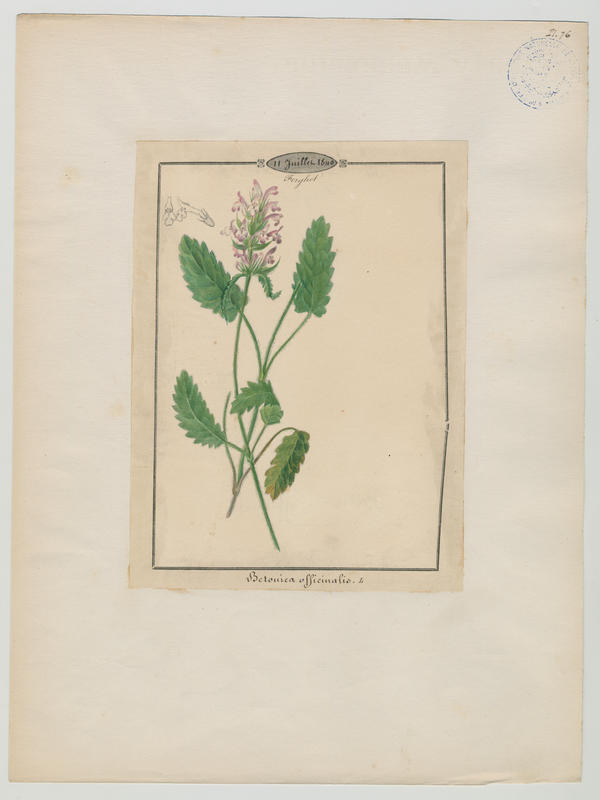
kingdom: Plantae
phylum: Tracheophyta
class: Magnoliopsida
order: Lamiales
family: Lamiaceae
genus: Betonica
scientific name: Betonica officinalis
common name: Bishop's-wort
